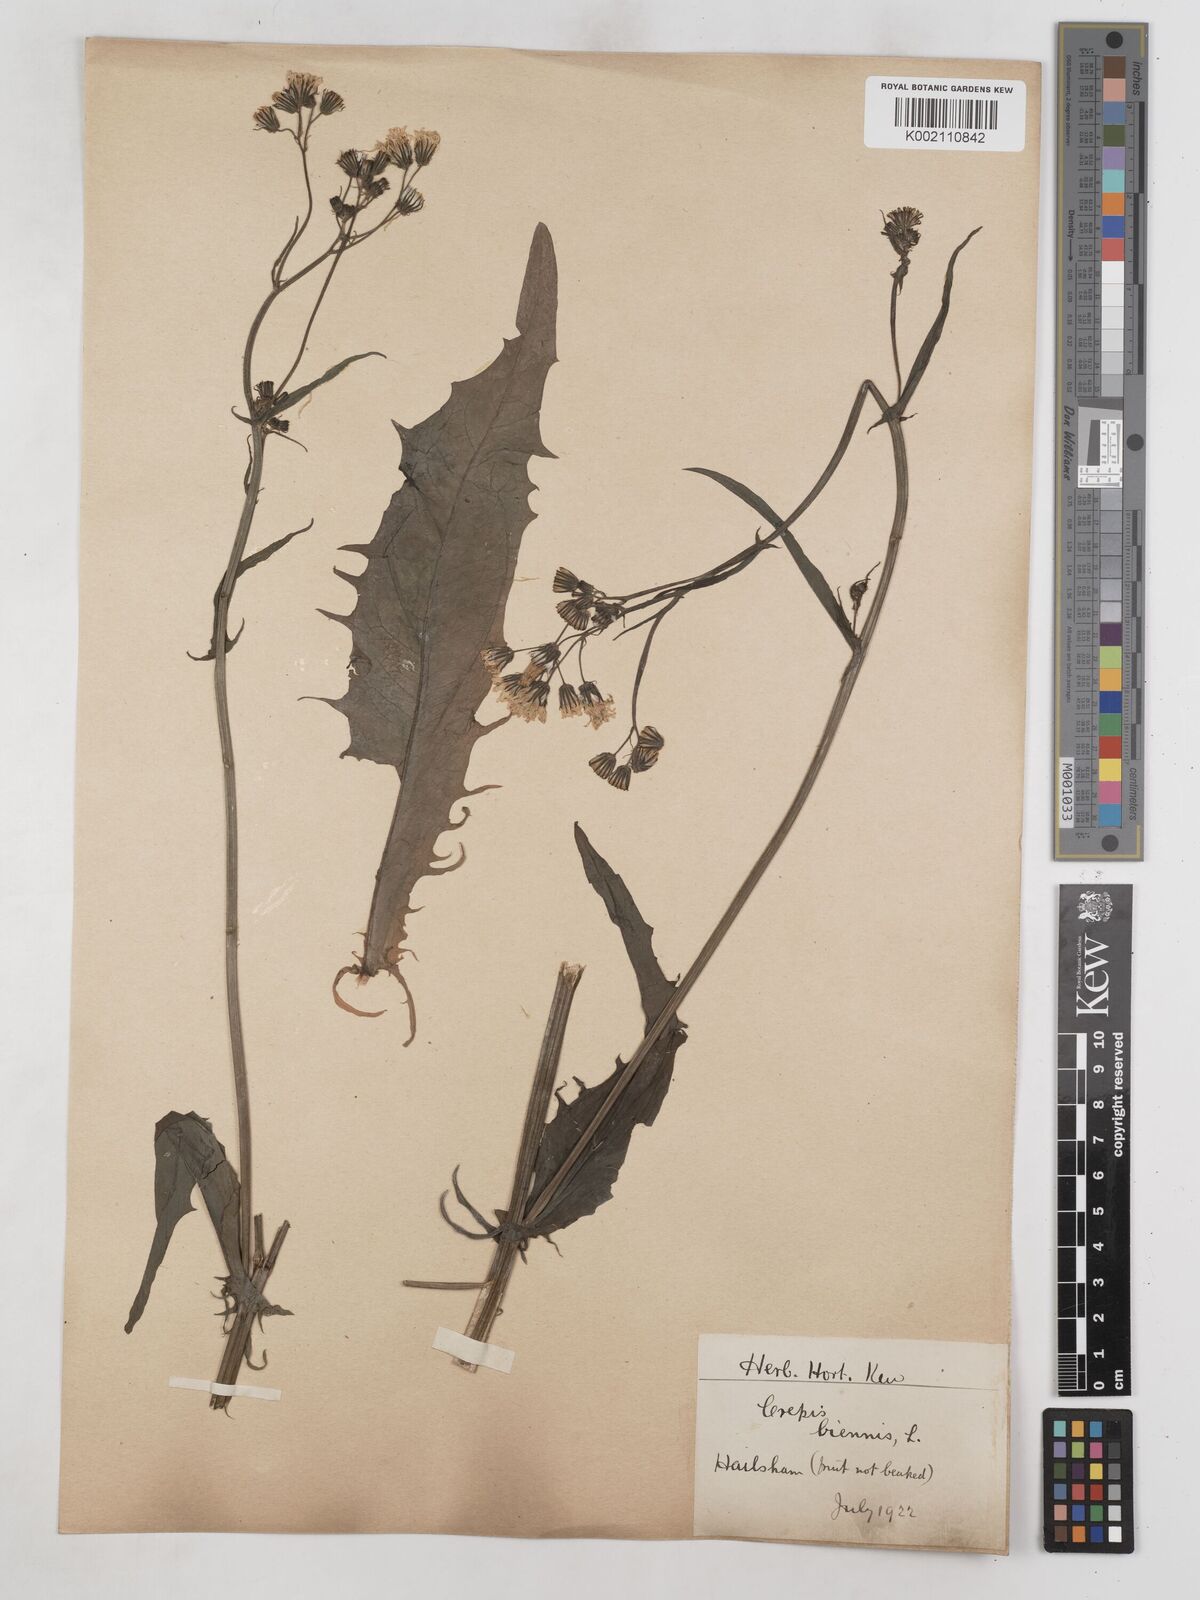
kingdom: Plantae
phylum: Tracheophyta
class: Magnoliopsida
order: Asterales
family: Asteraceae
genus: Crepis
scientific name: Crepis biennis
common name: Rough hawk's-beard
